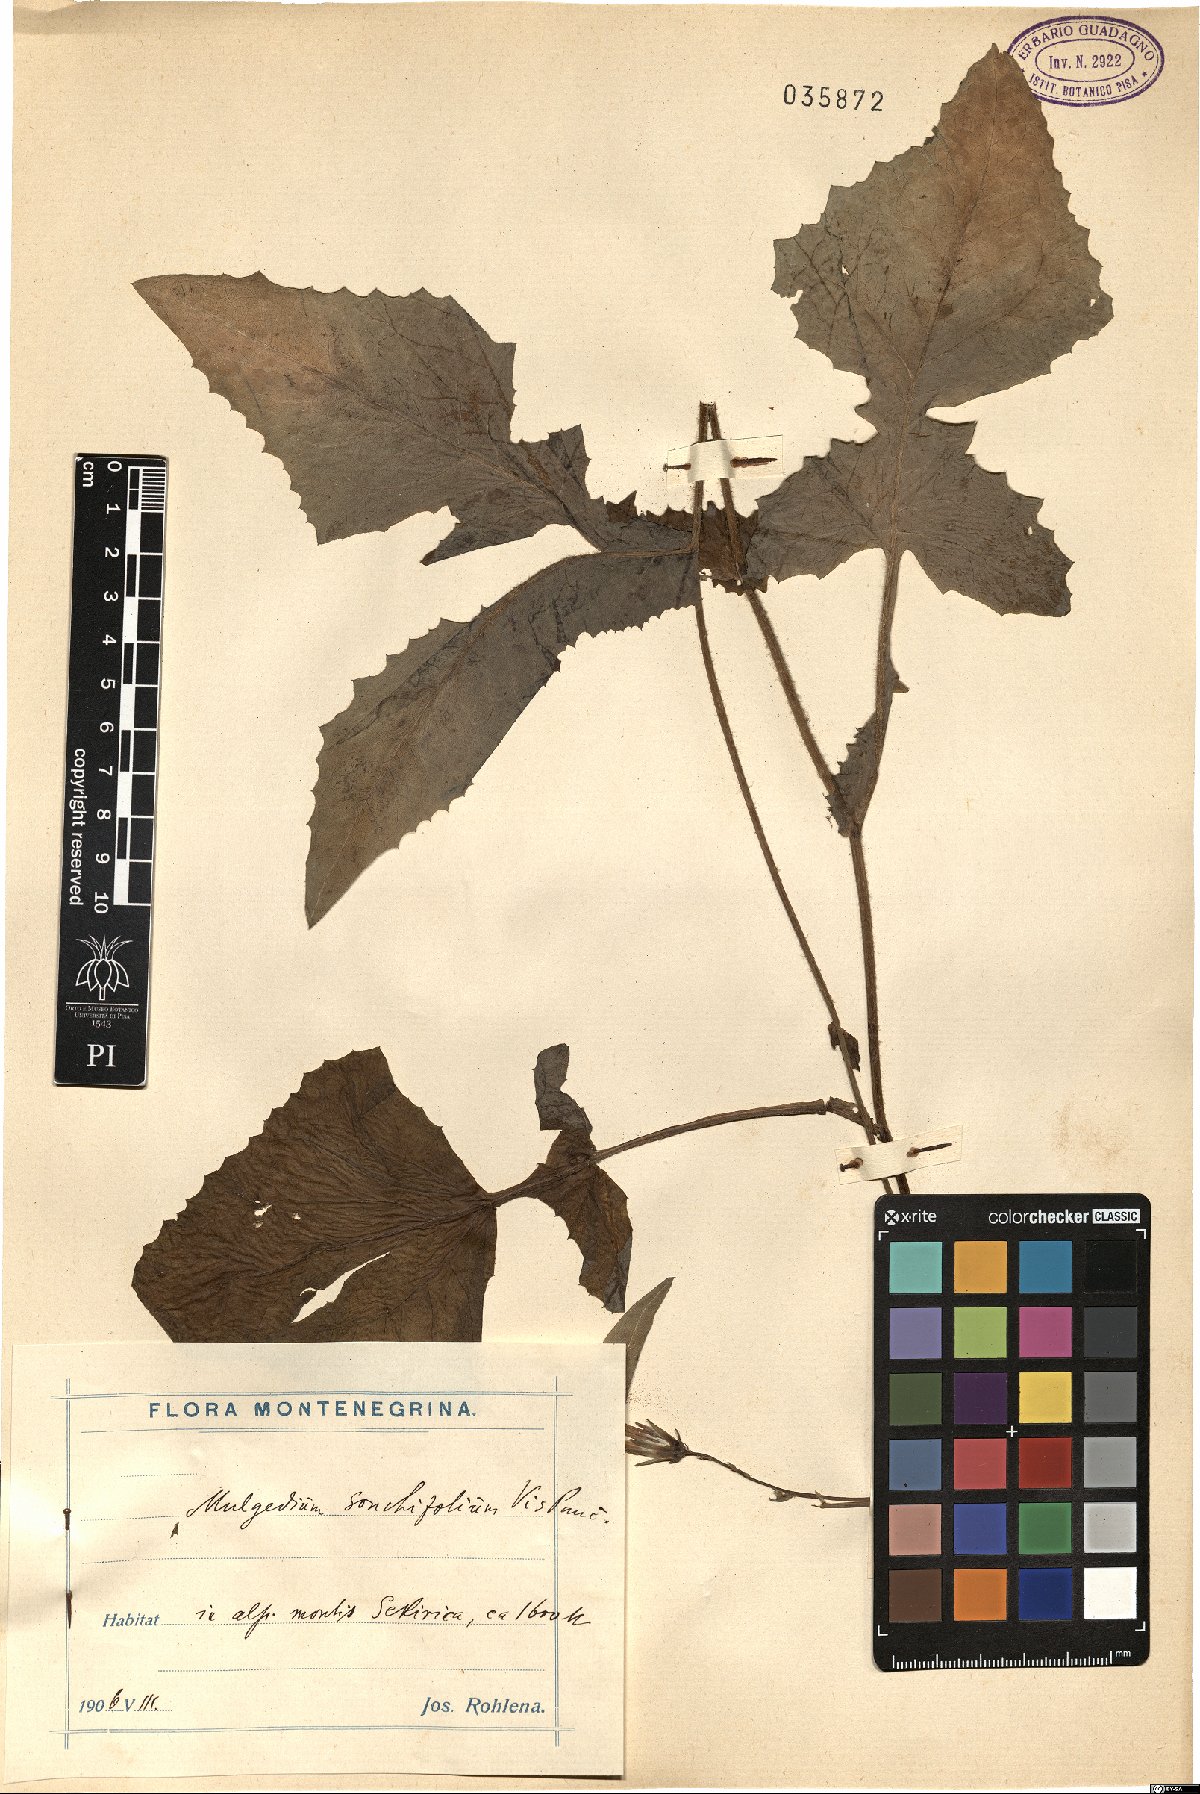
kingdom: Plantae
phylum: Tracheophyta
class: Magnoliopsida
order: Asterales
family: Asteraceae
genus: Lactuca
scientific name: Lactuca sonchifolia
